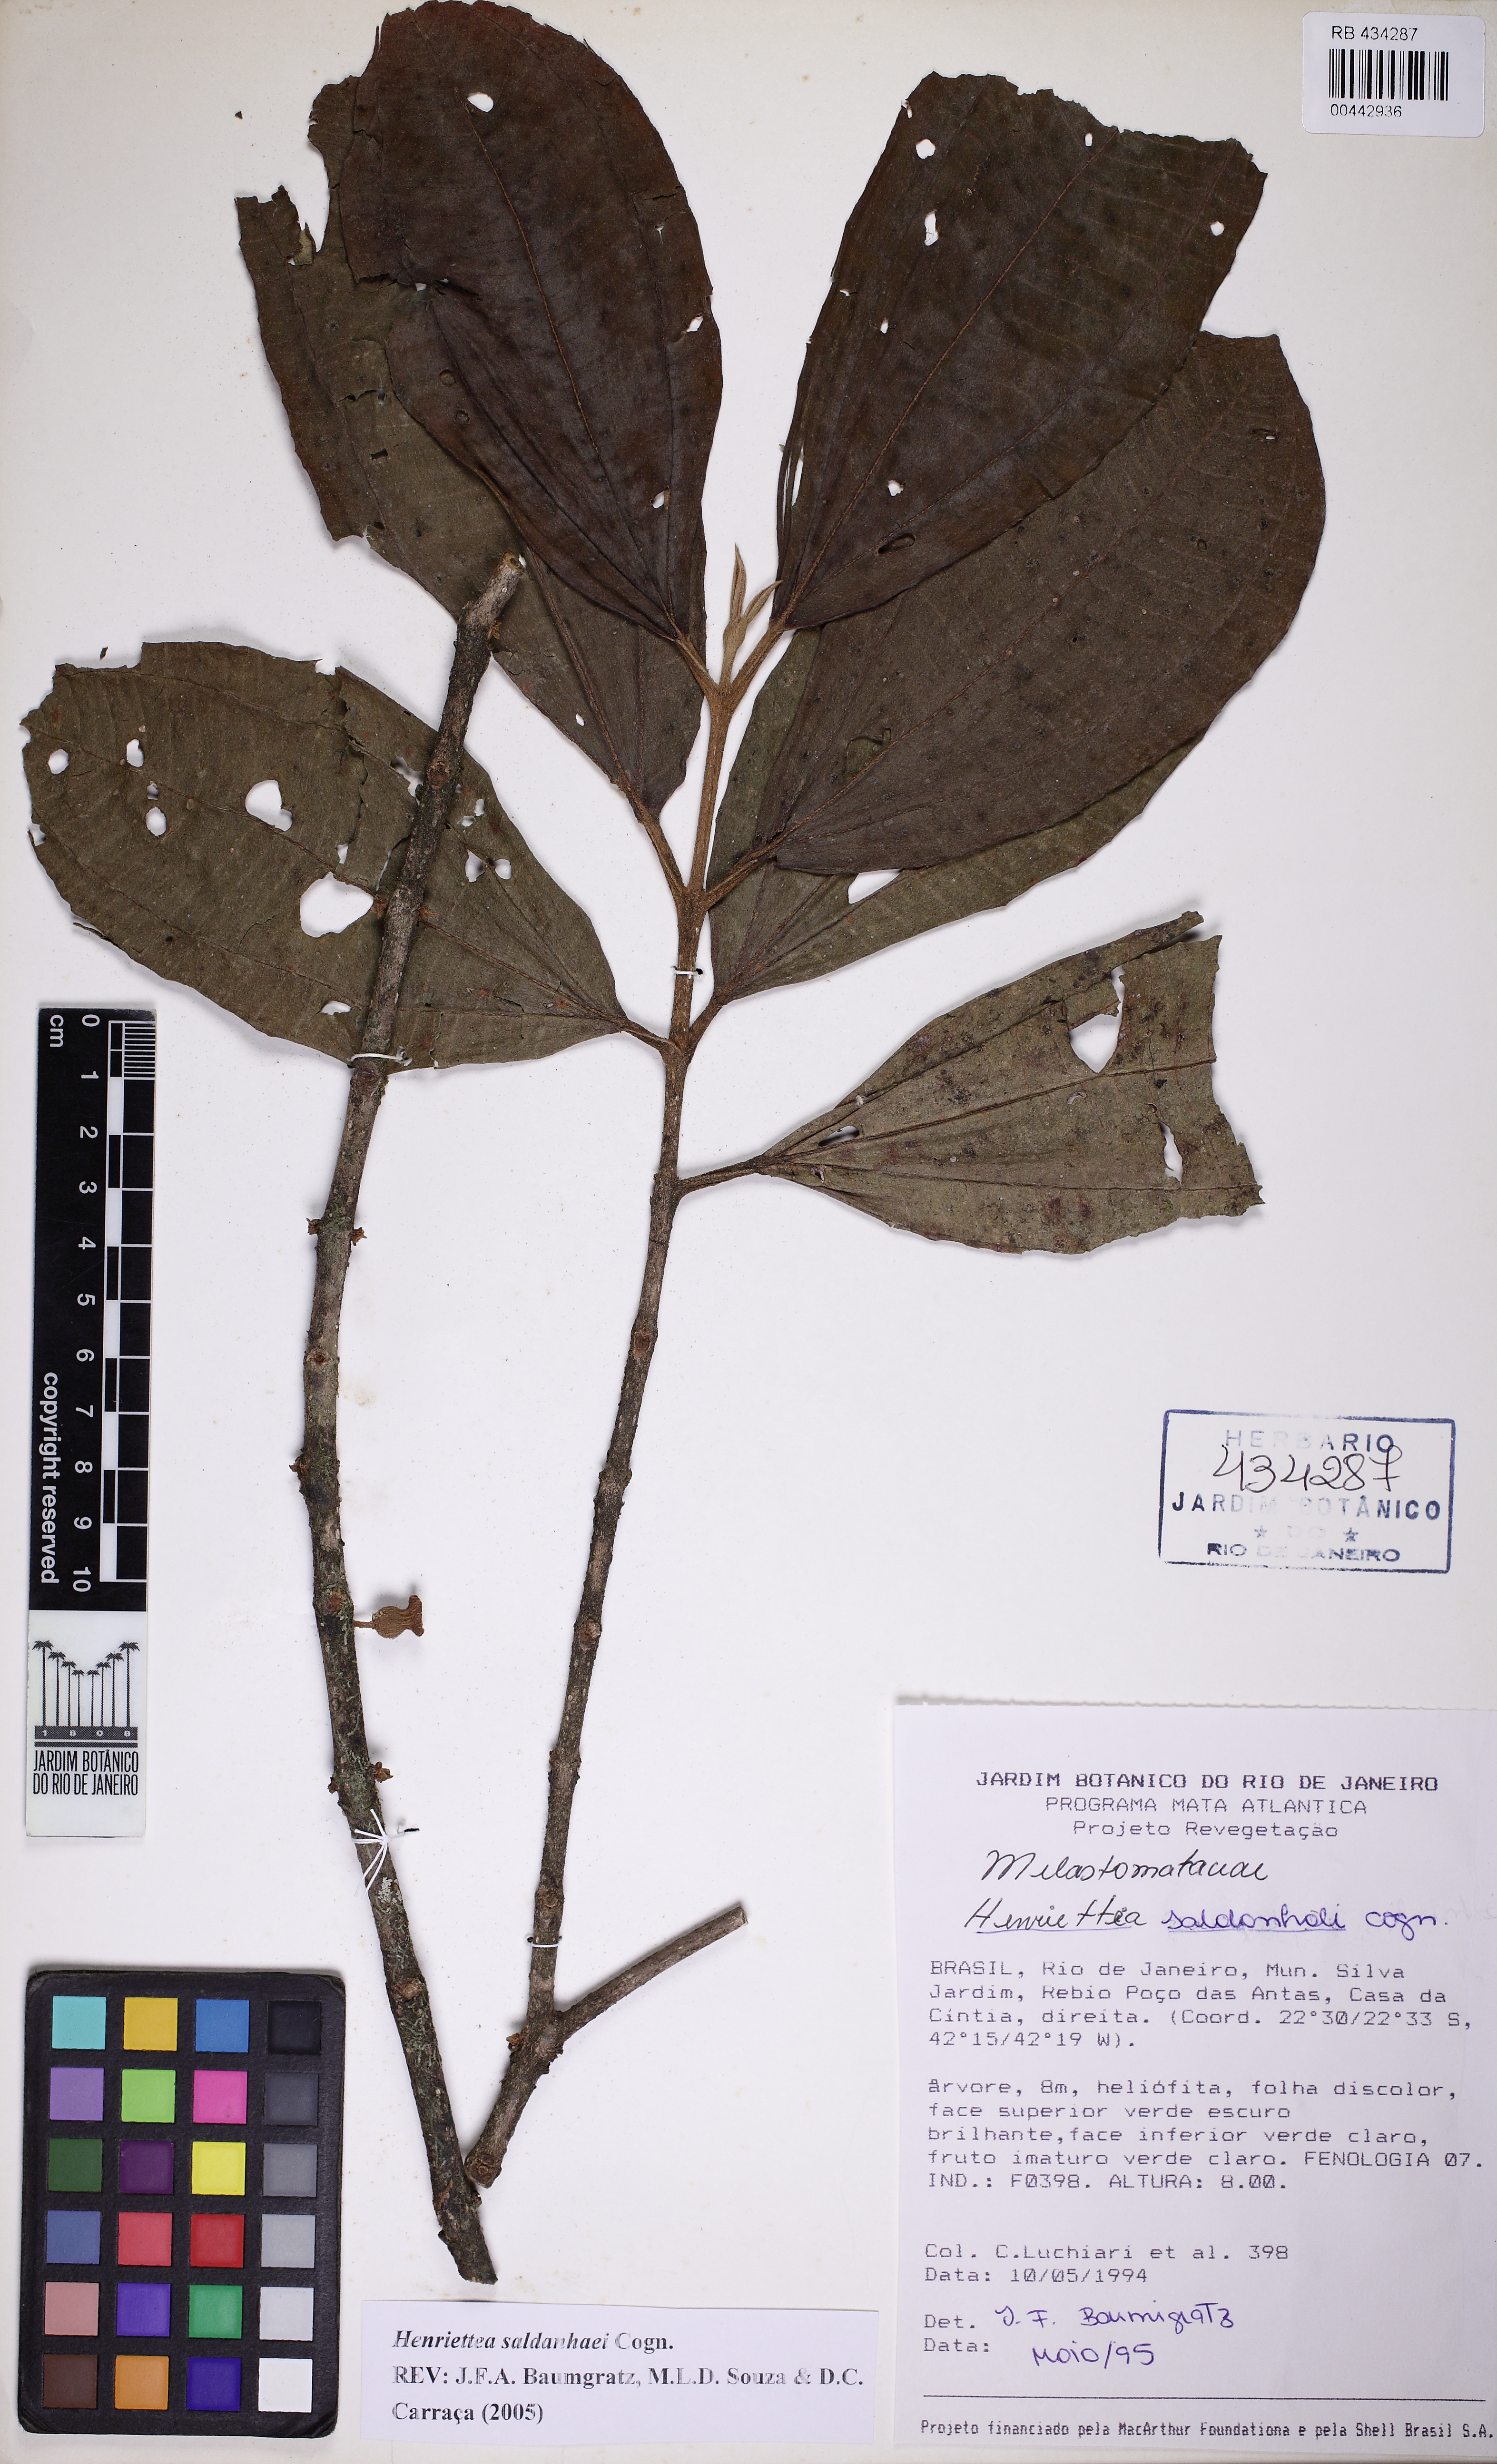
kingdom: Plantae
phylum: Tracheophyta
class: Magnoliopsida
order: Myrtales
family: Melastomataceae
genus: Henriettea
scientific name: Henriettea saldanhaei
